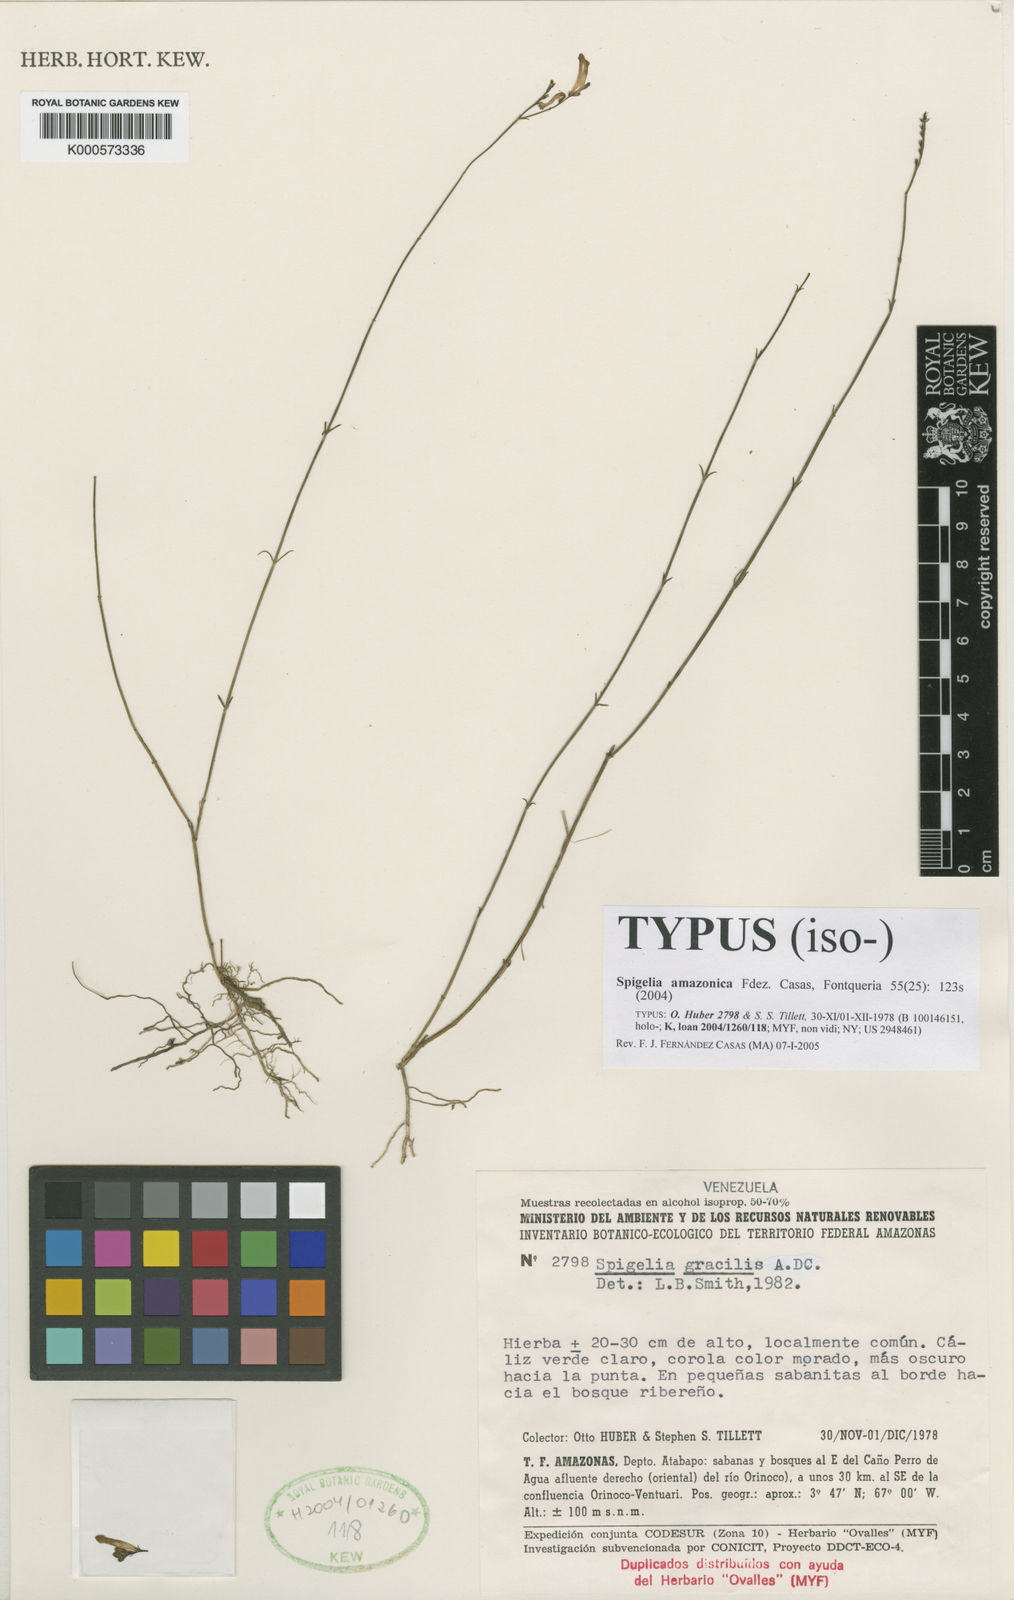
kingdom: Plantae
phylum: Tracheophyta
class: Magnoliopsida
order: Gentianales
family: Loganiaceae
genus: Spigelia
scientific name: Spigelia amazonica
